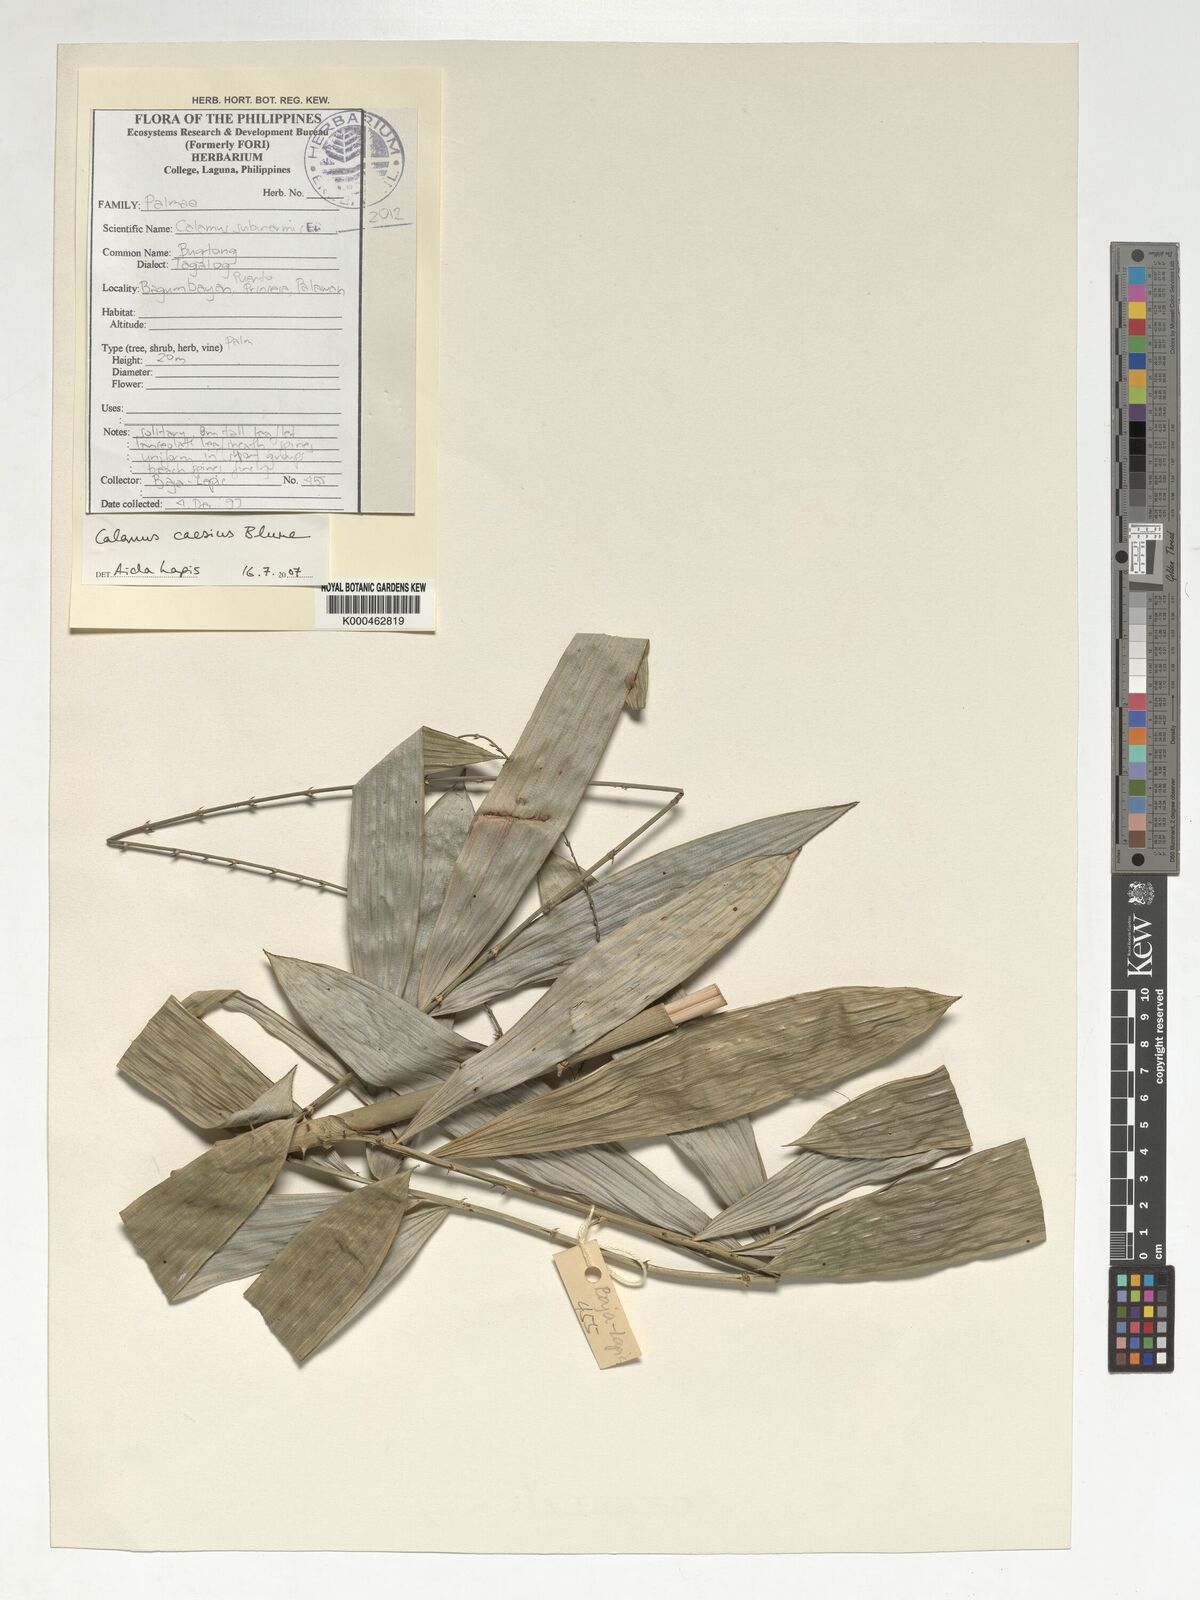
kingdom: Plantae
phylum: Tracheophyta
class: Liliopsida
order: Arecales
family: Arecaceae
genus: Calamus
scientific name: Calamus caesius
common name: Rattan palm
